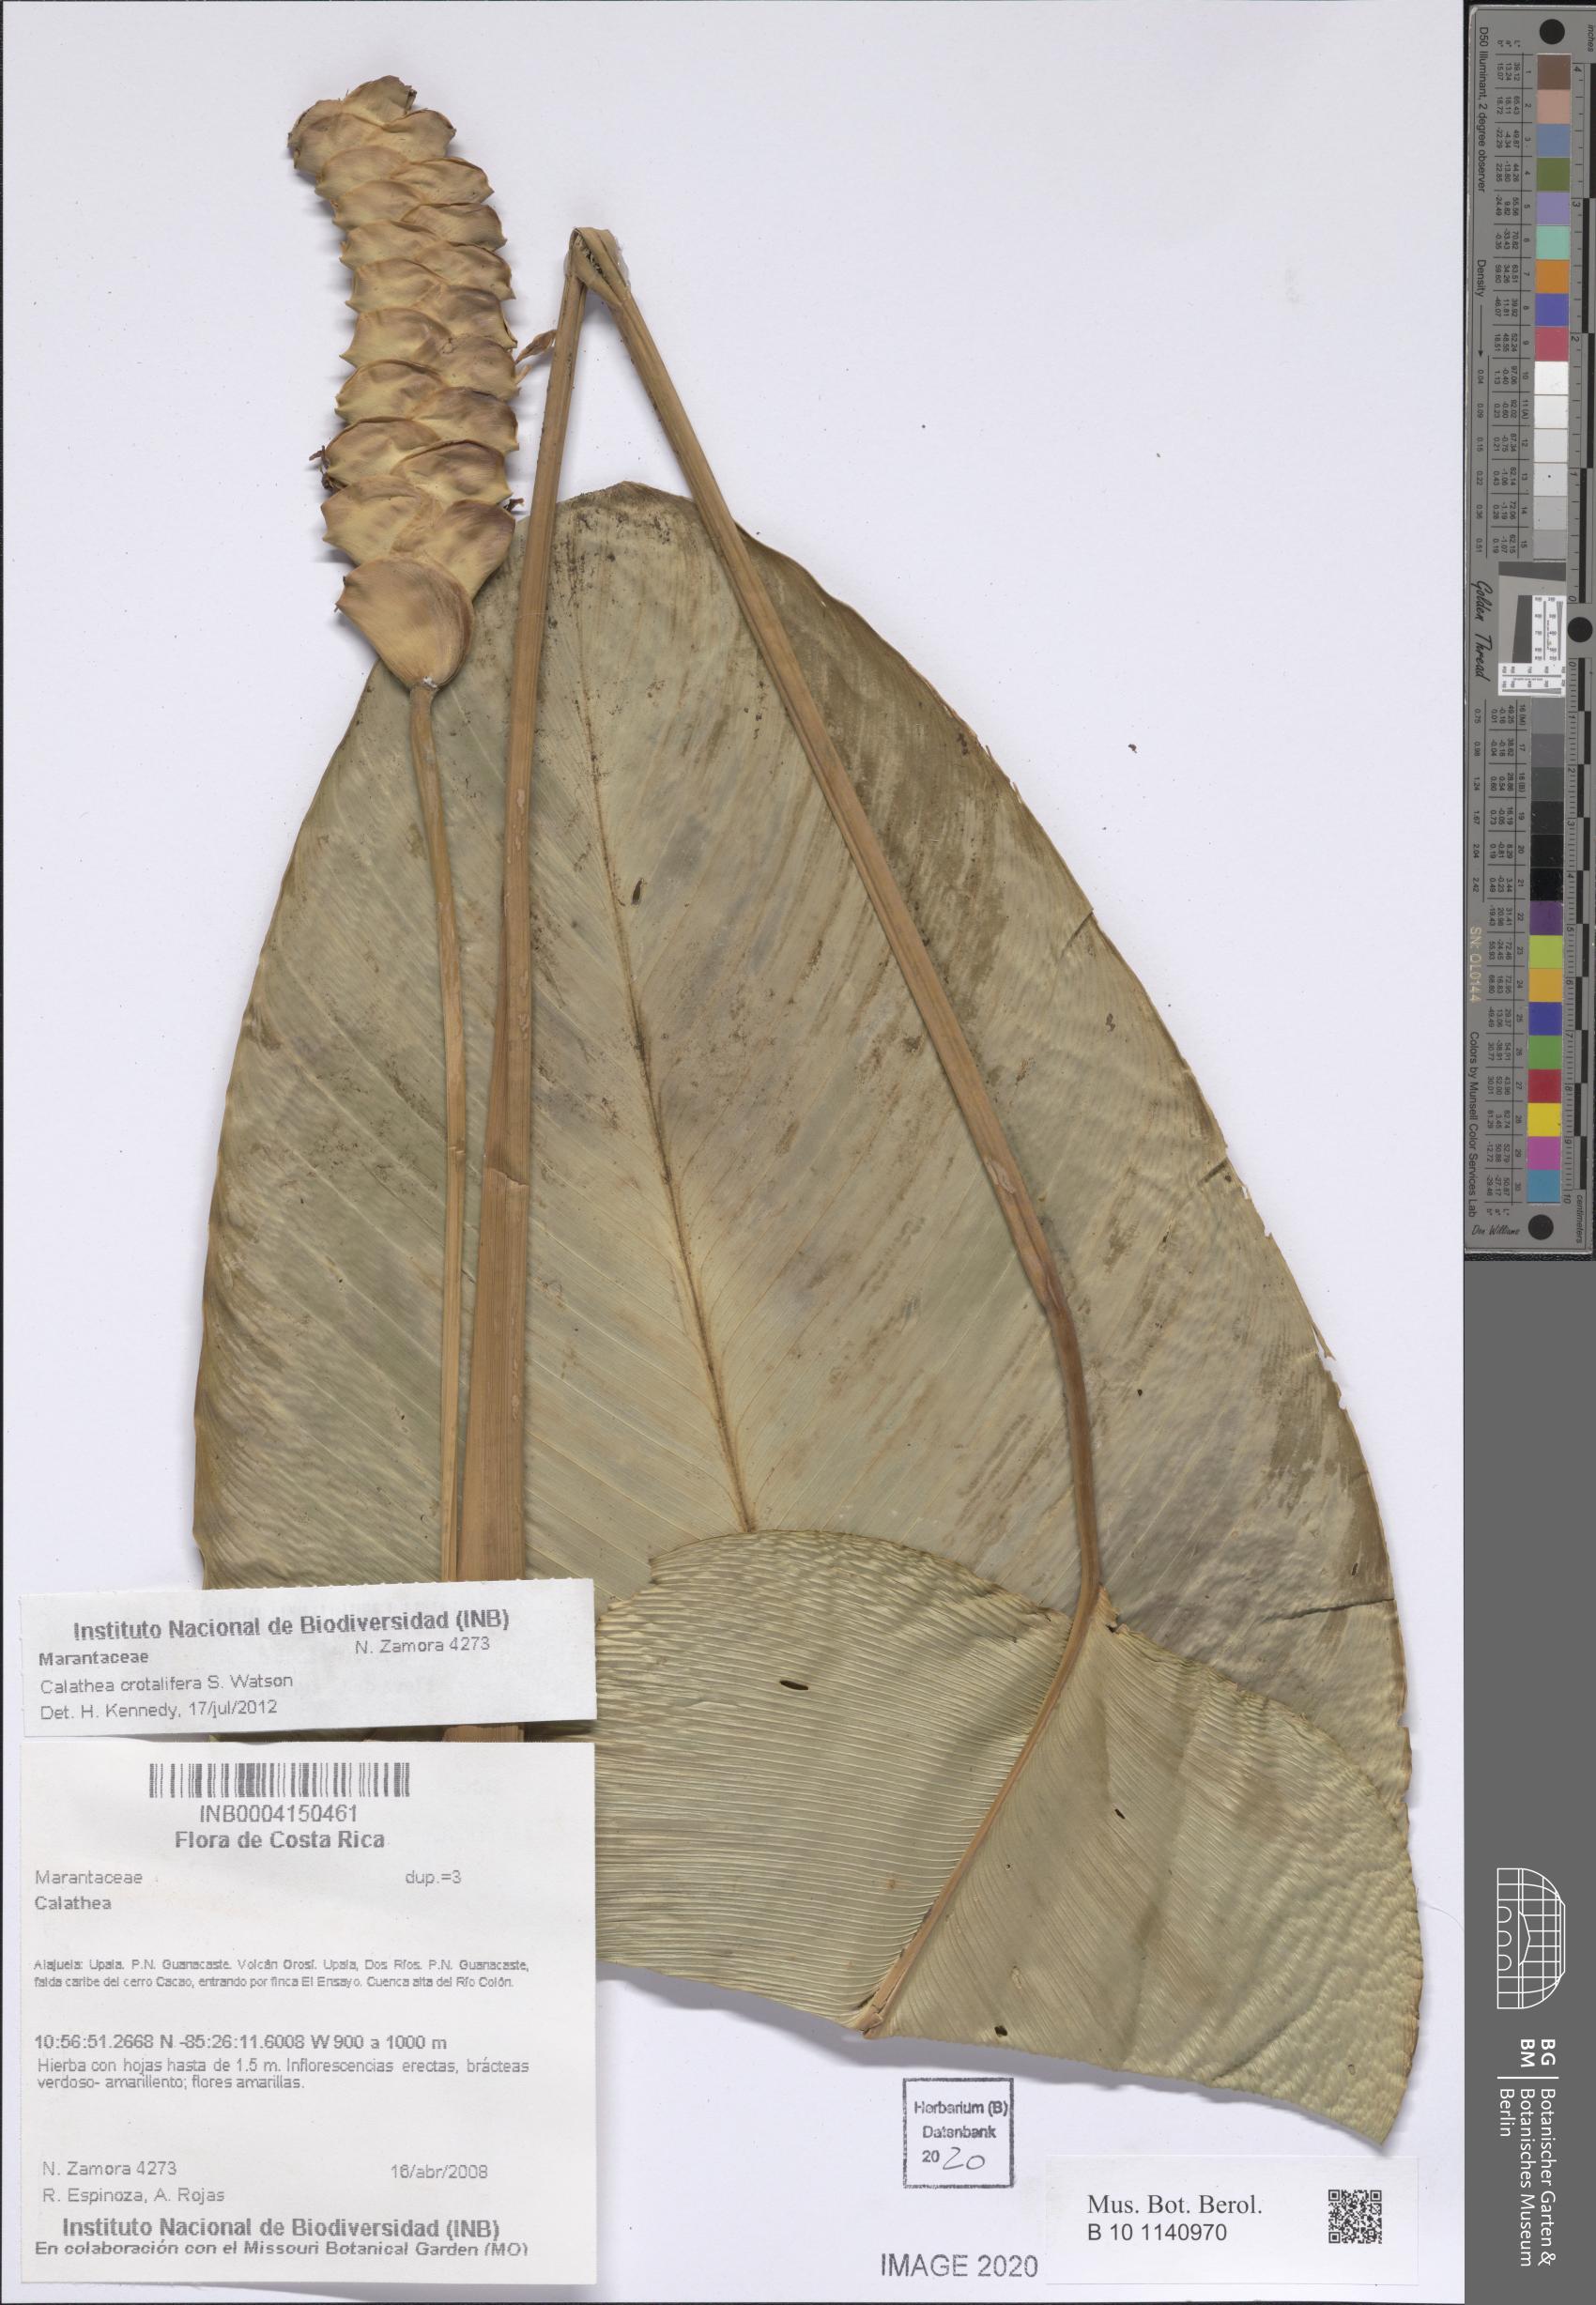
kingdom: Plantae
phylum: Tracheophyta
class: Liliopsida
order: Zingiberales
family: Marantaceae
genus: Calathea
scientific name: Calathea crotalifera
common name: Rattlesnake plant
